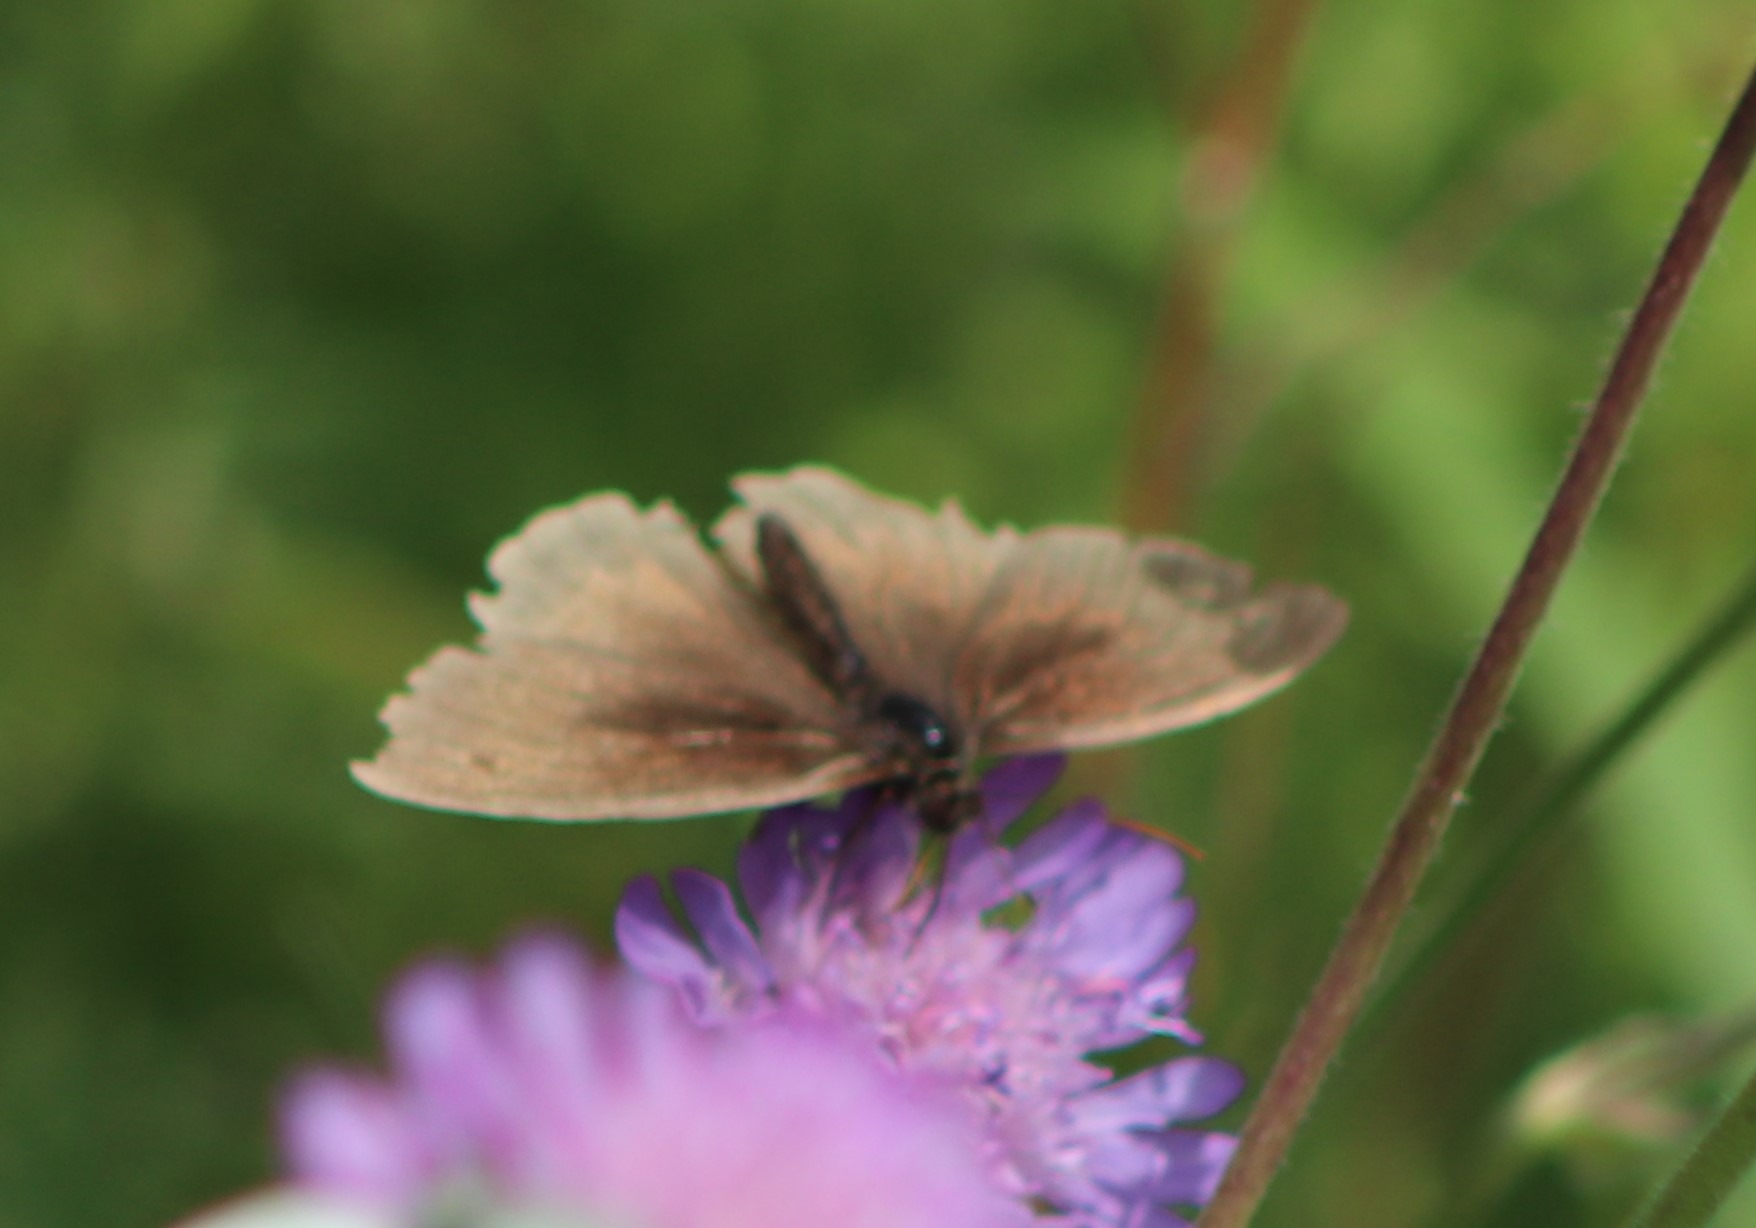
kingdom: Animalia
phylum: Arthropoda
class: Insecta
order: Lepidoptera
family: Nymphalidae
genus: Maniola
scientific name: Maniola jurtina
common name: Græsrandøje
